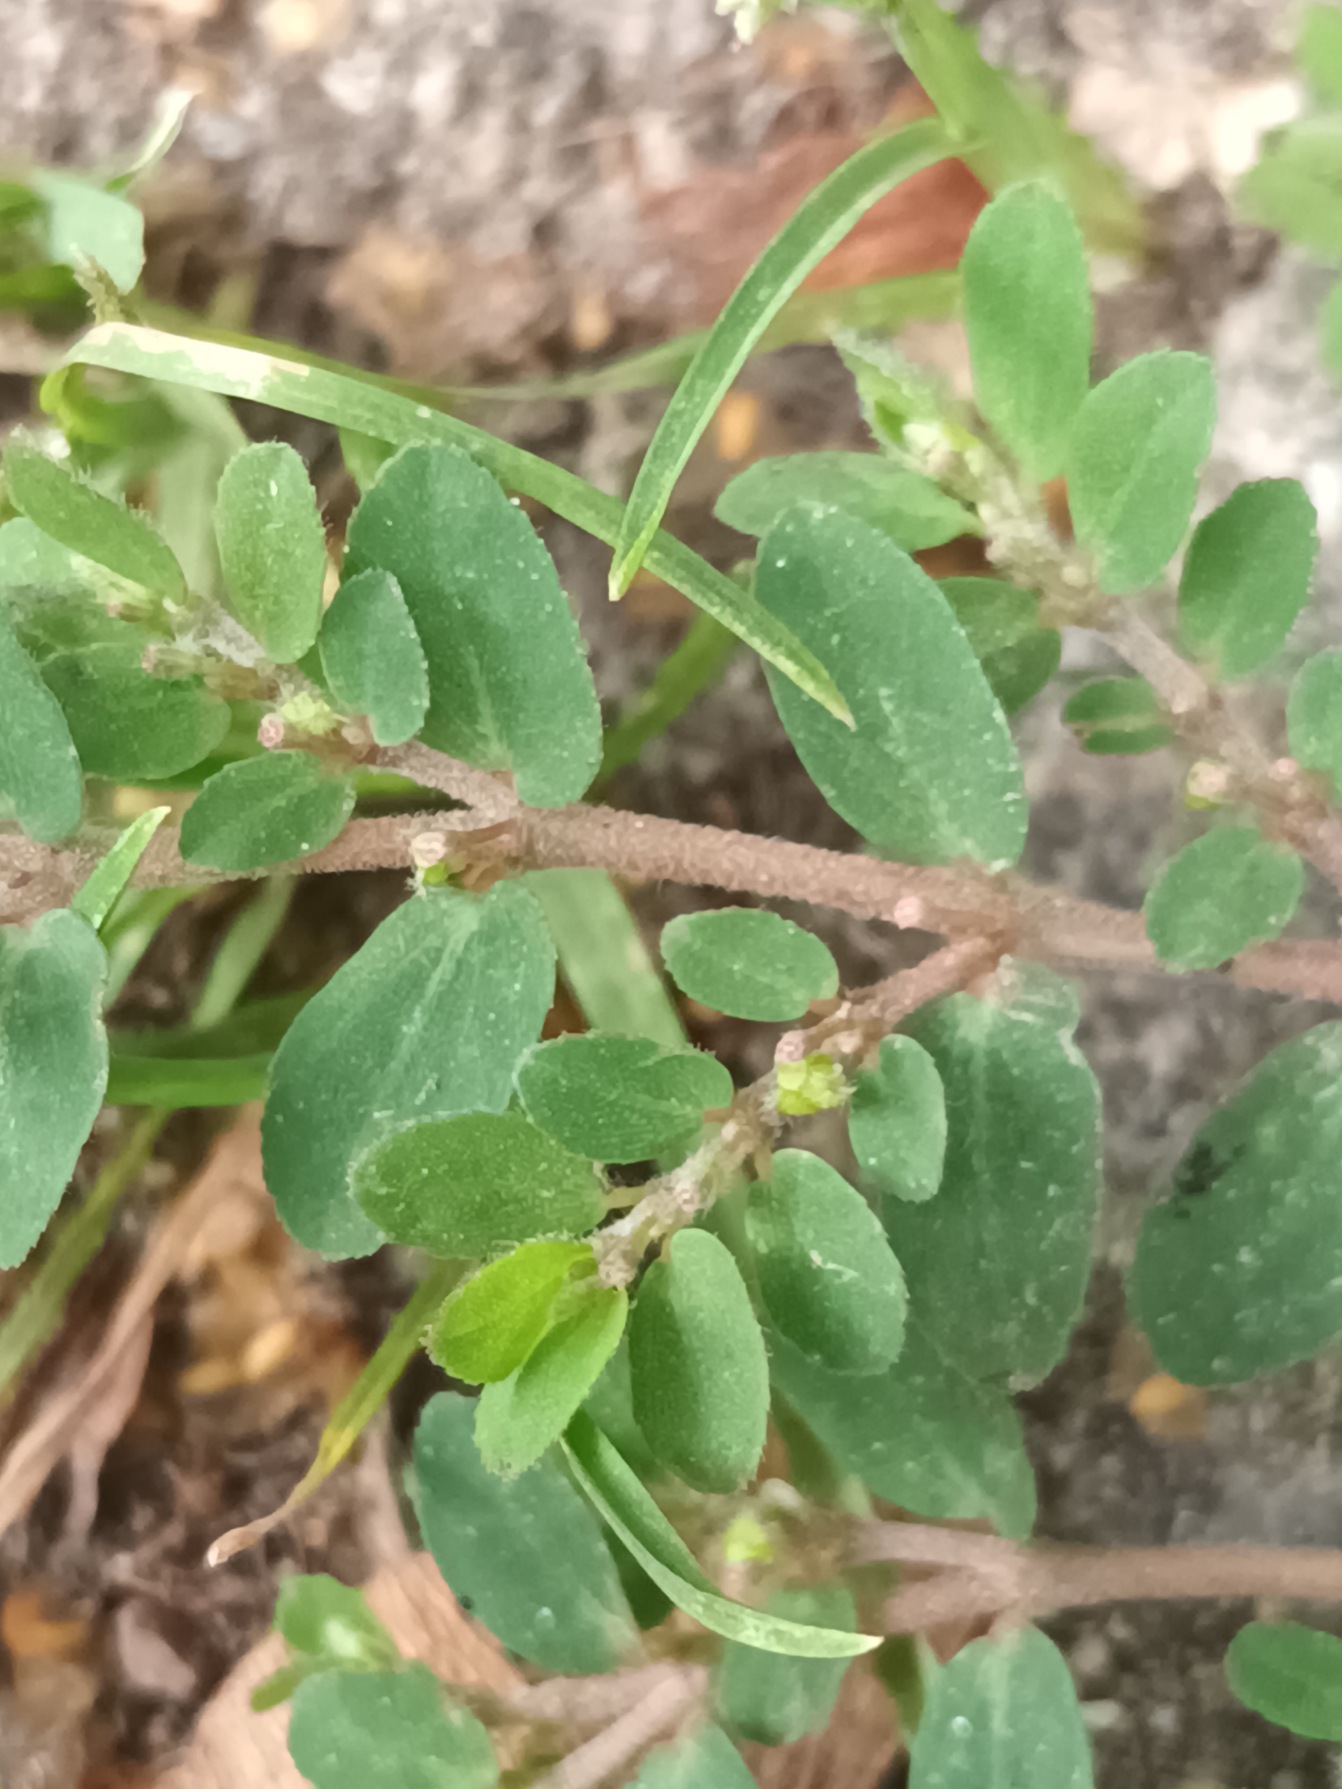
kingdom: Plantae
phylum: Tracheophyta
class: Magnoliopsida
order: Malpighiales
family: Euphorbiaceae
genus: Euphorbia
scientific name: Euphorbia prostrata
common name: Tiltrykt vortemælk
